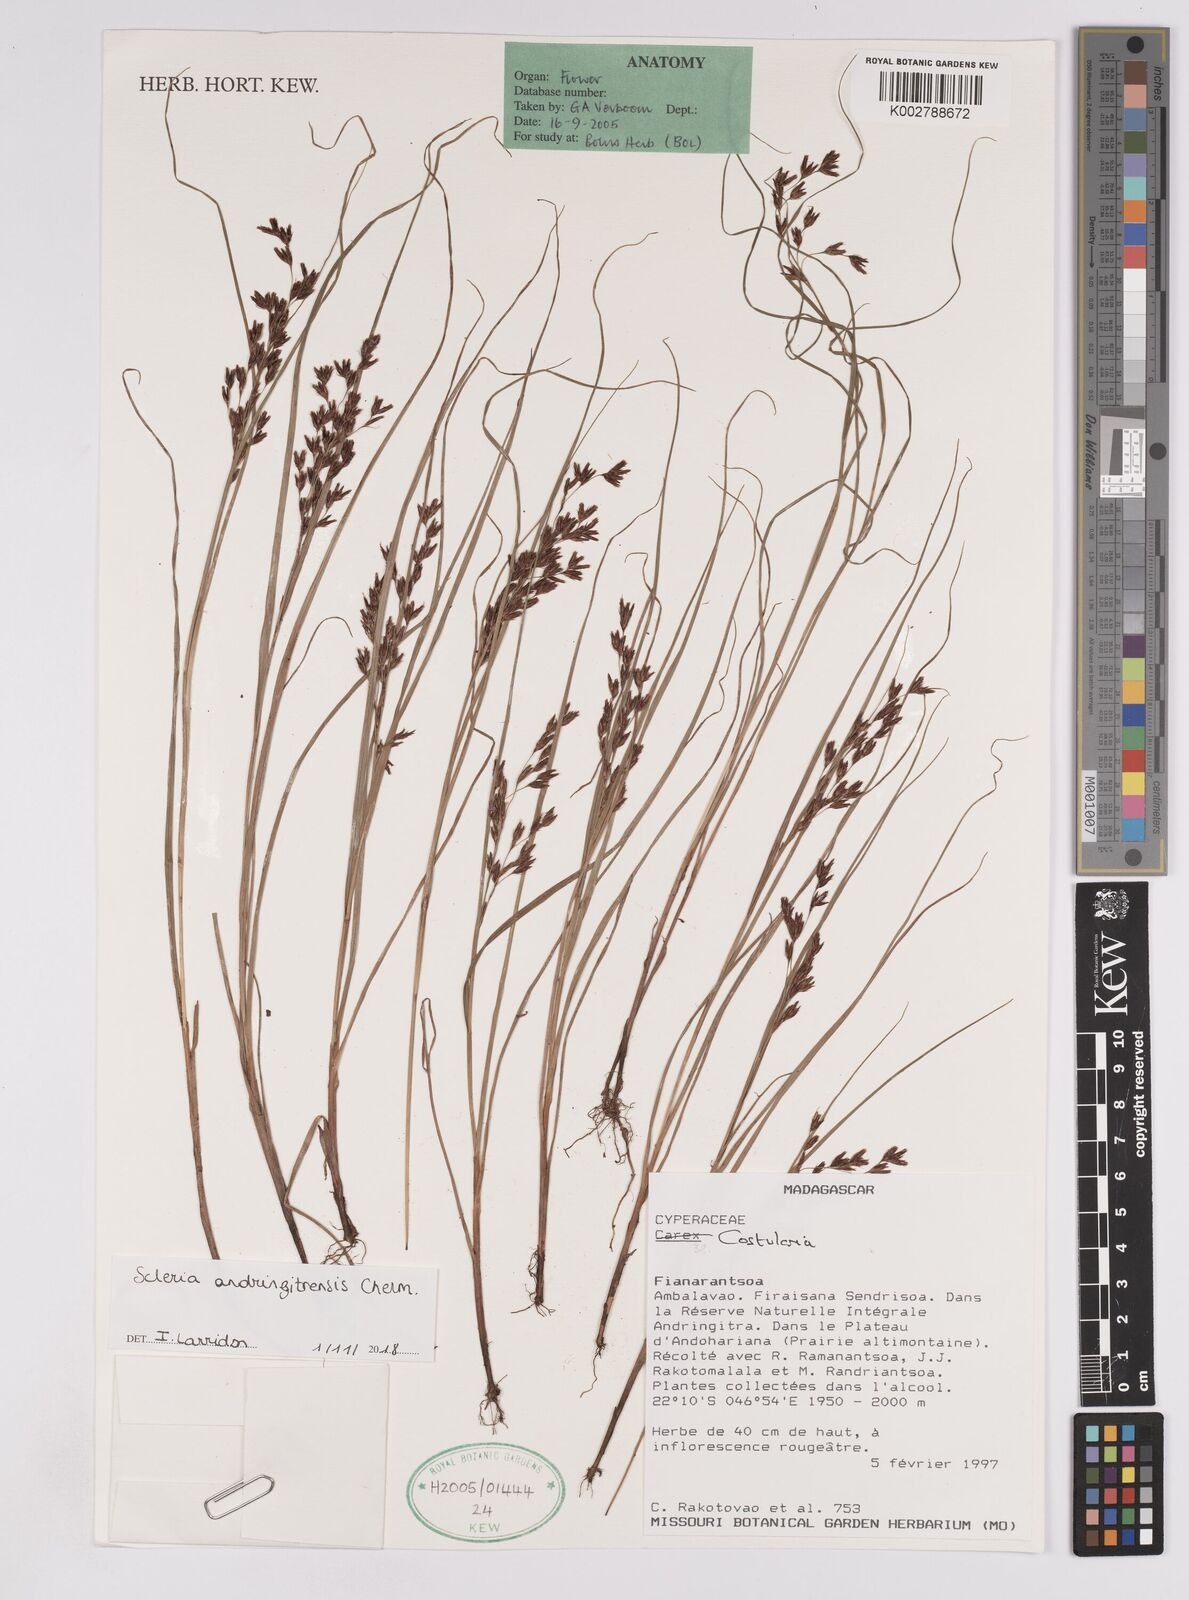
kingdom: Plantae
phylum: Tracheophyta
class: Liliopsida
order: Poales
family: Cyperaceae
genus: Scleria
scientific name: Scleria andringitrensis
